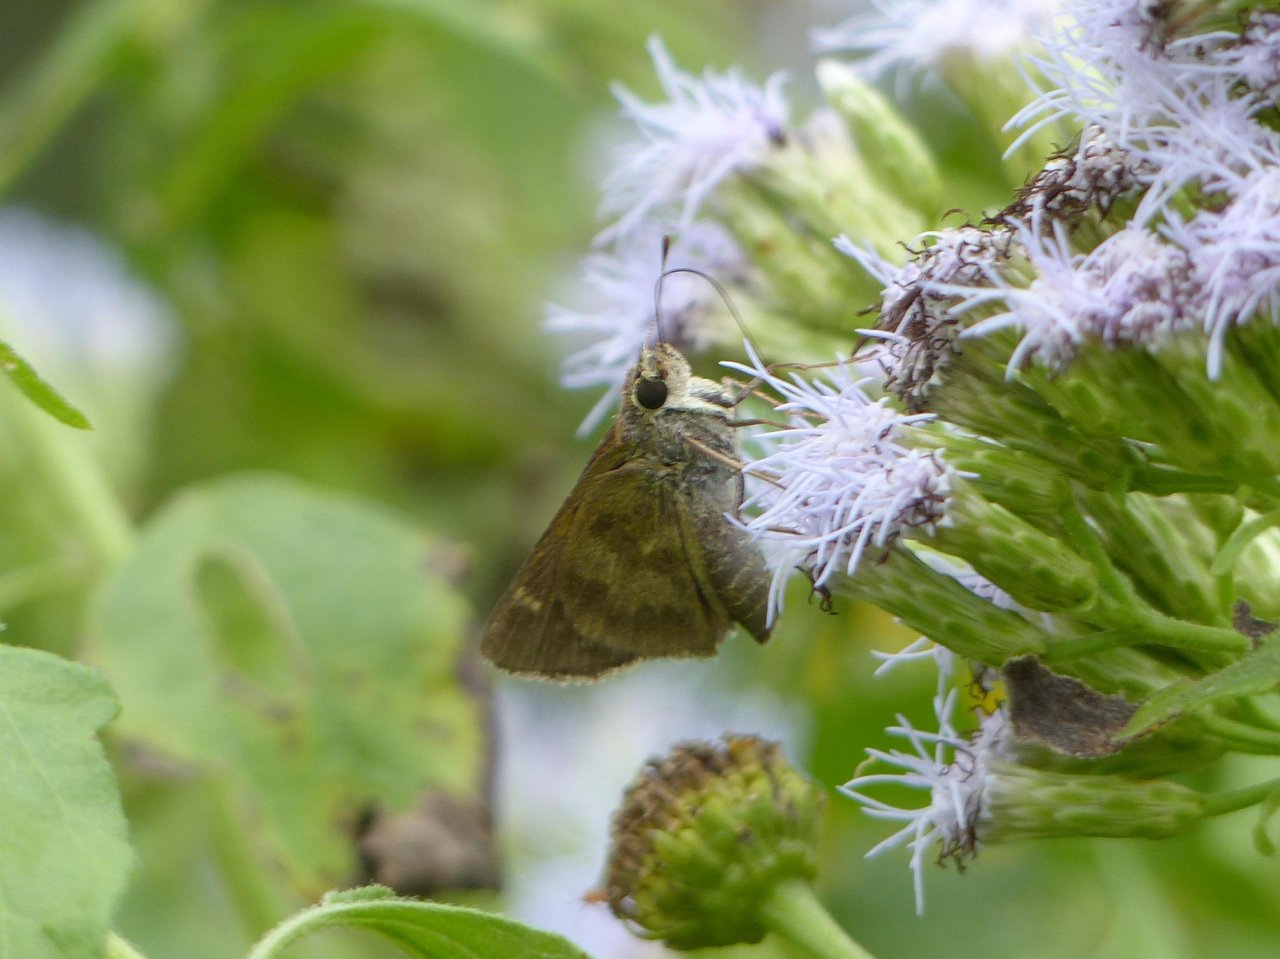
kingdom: Animalia
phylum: Arthropoda
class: Insecta
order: Lepidoptera
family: Hesperiidae
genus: Polites
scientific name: Polites vibex
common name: Whirlabout
